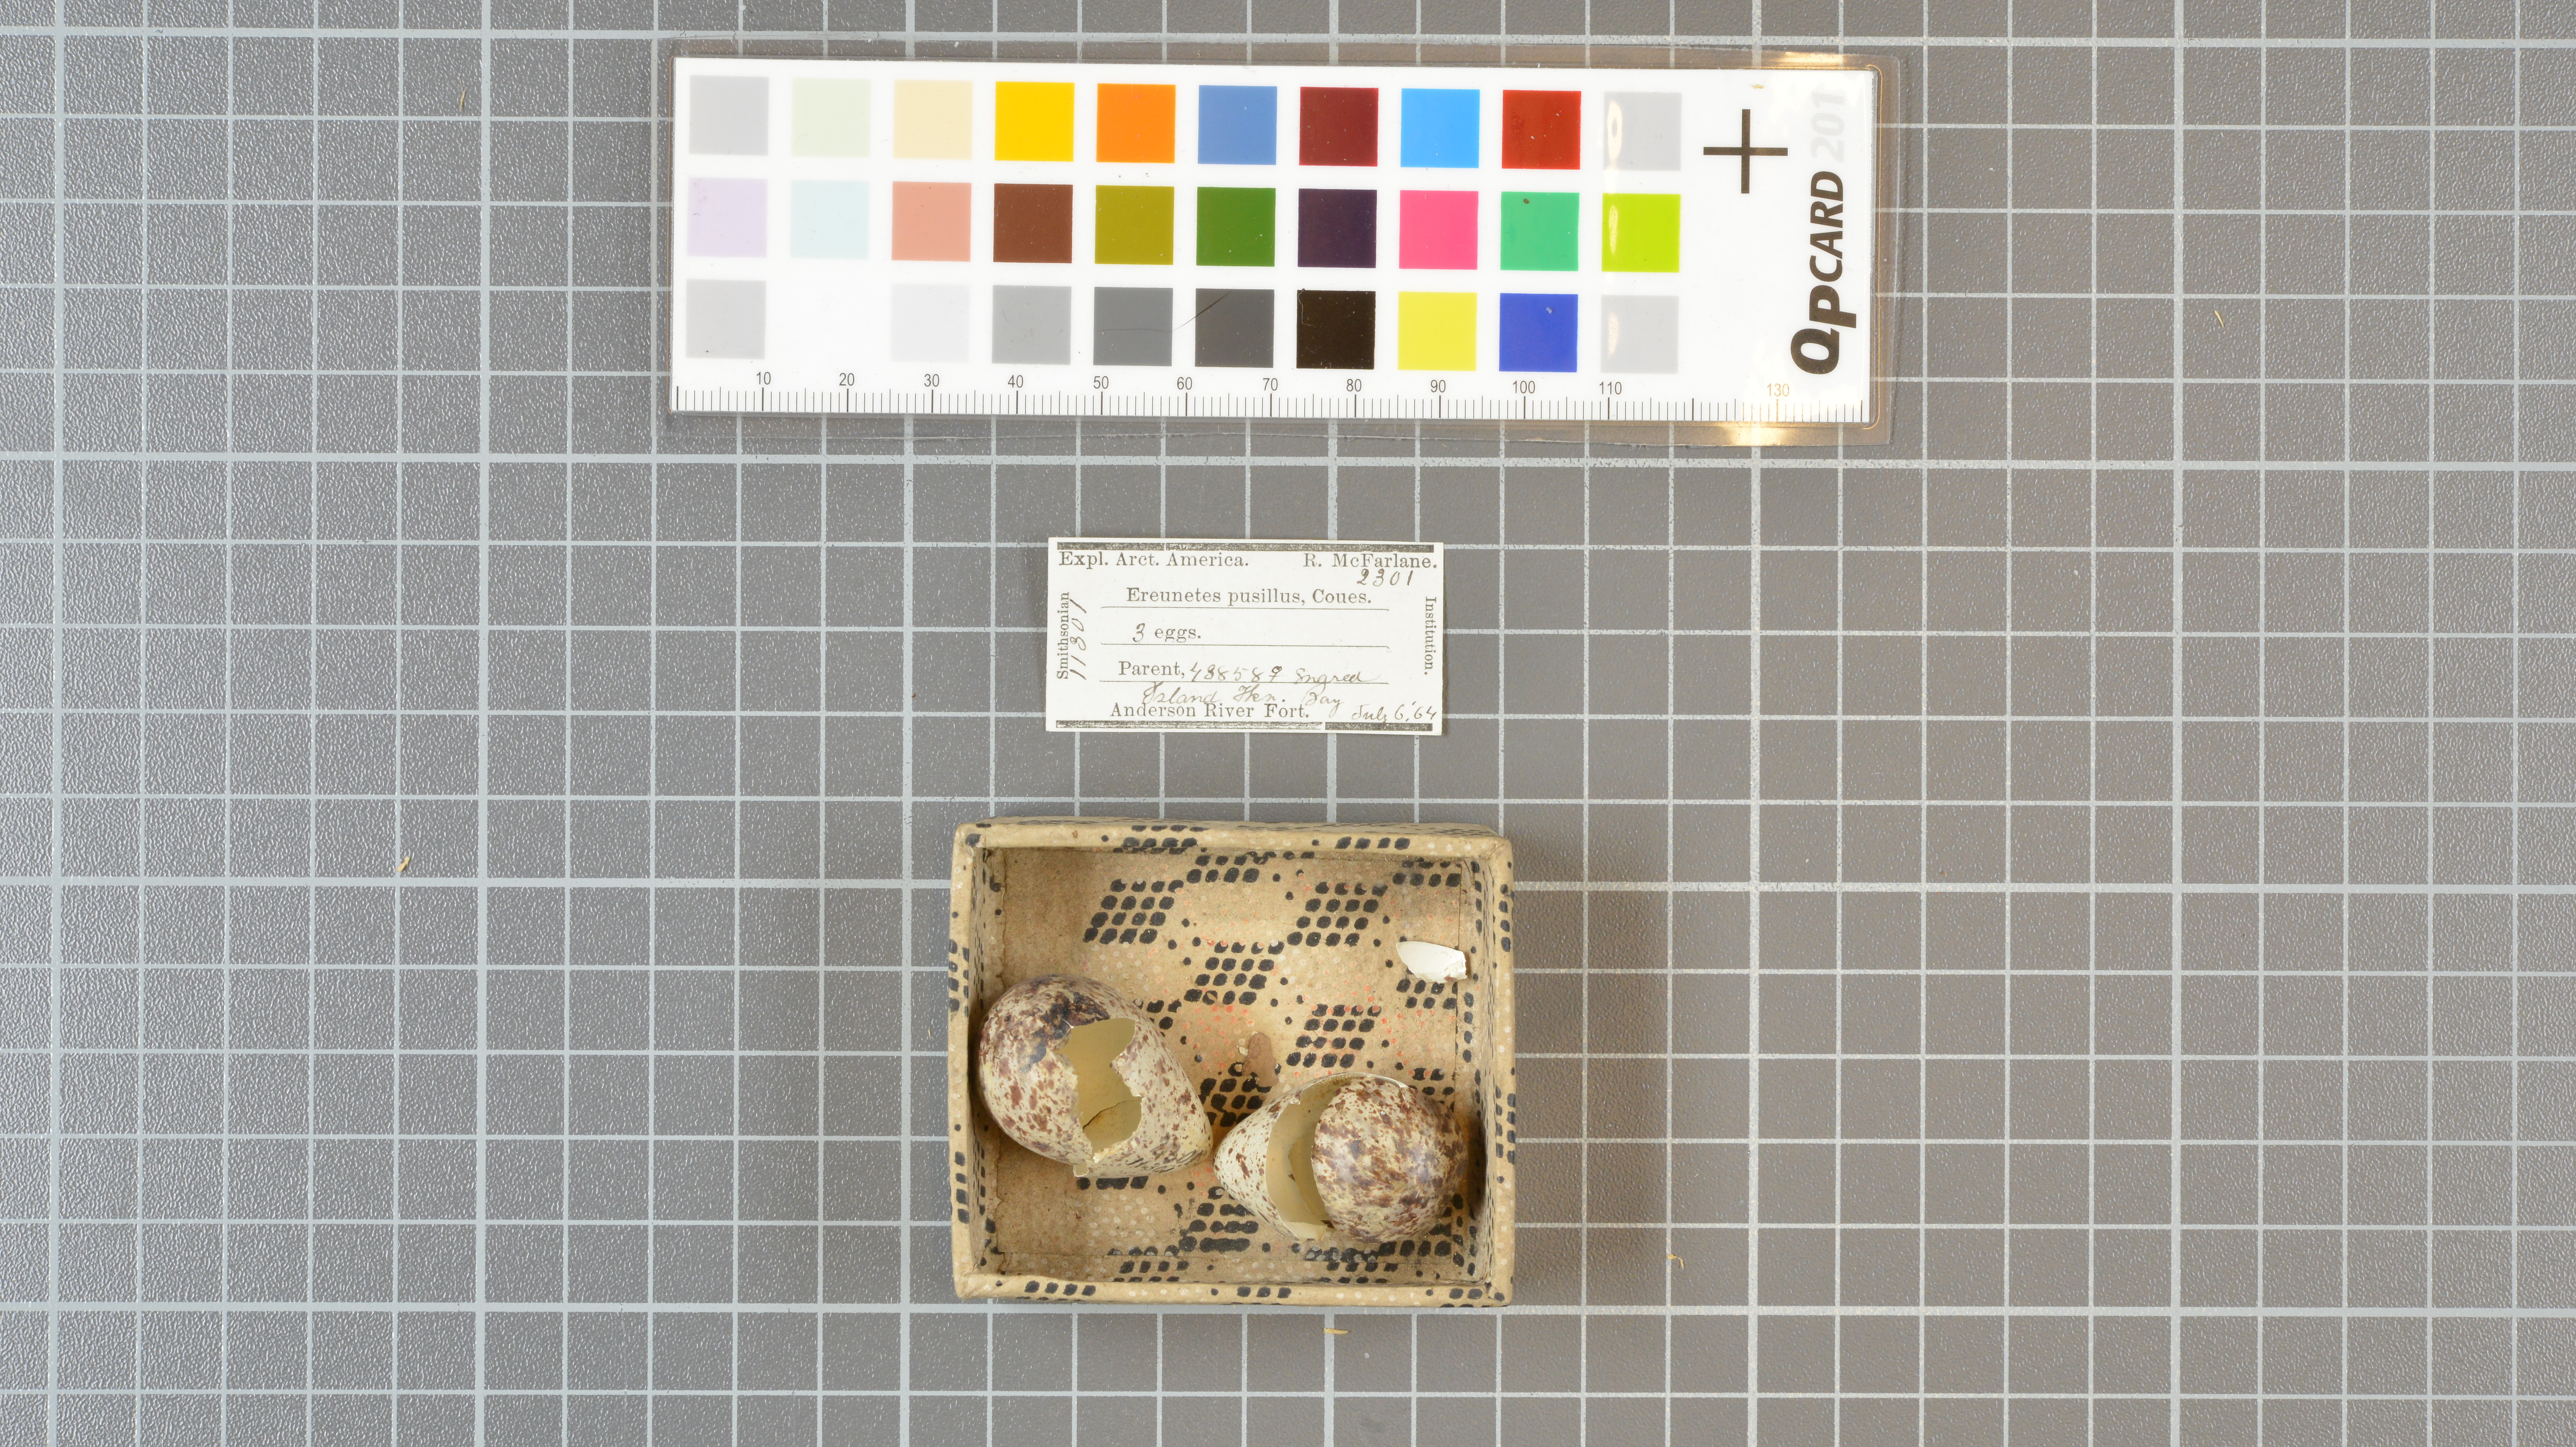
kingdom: Animalia
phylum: Chordata
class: Aves
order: Charadriiformes
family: Scolopacidae
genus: Calidris
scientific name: Calidris pusilla
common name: Semipalmated sandpiper
